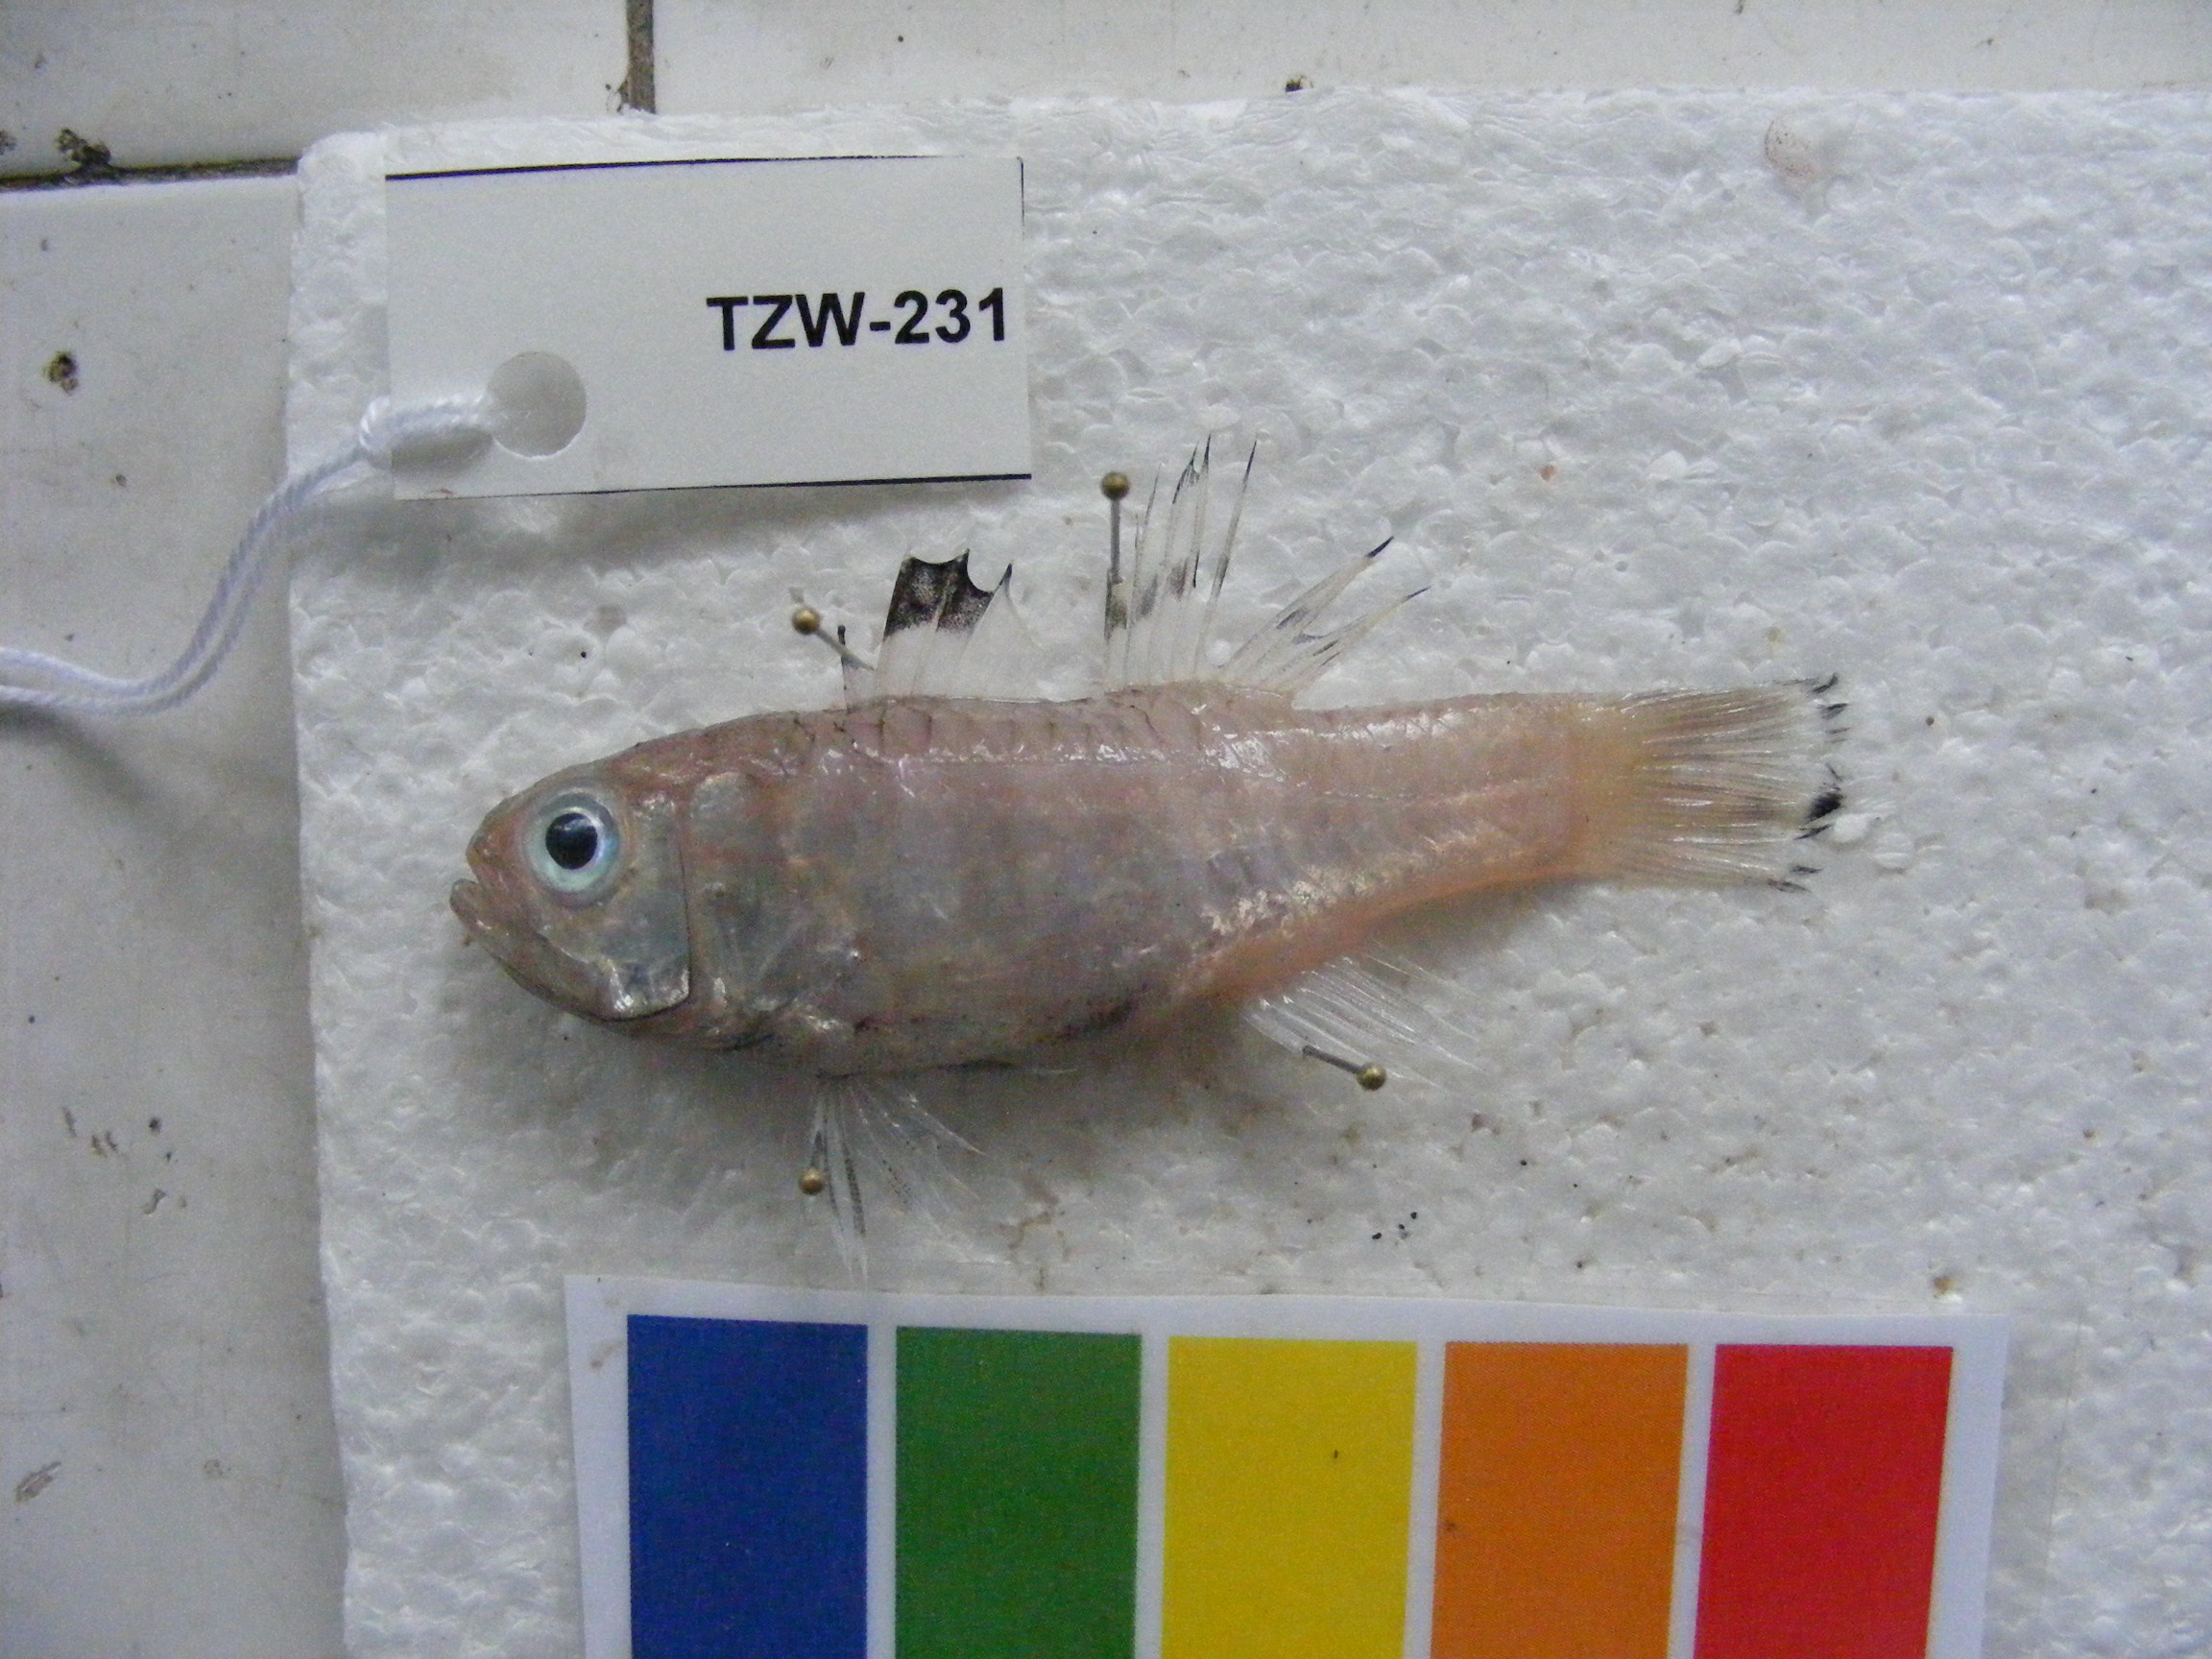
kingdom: Animalia
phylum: Chordata
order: Perciformes
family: Apogonidae
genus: Jaydia
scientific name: Jaydia smithi
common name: Smith's cardinalfish
